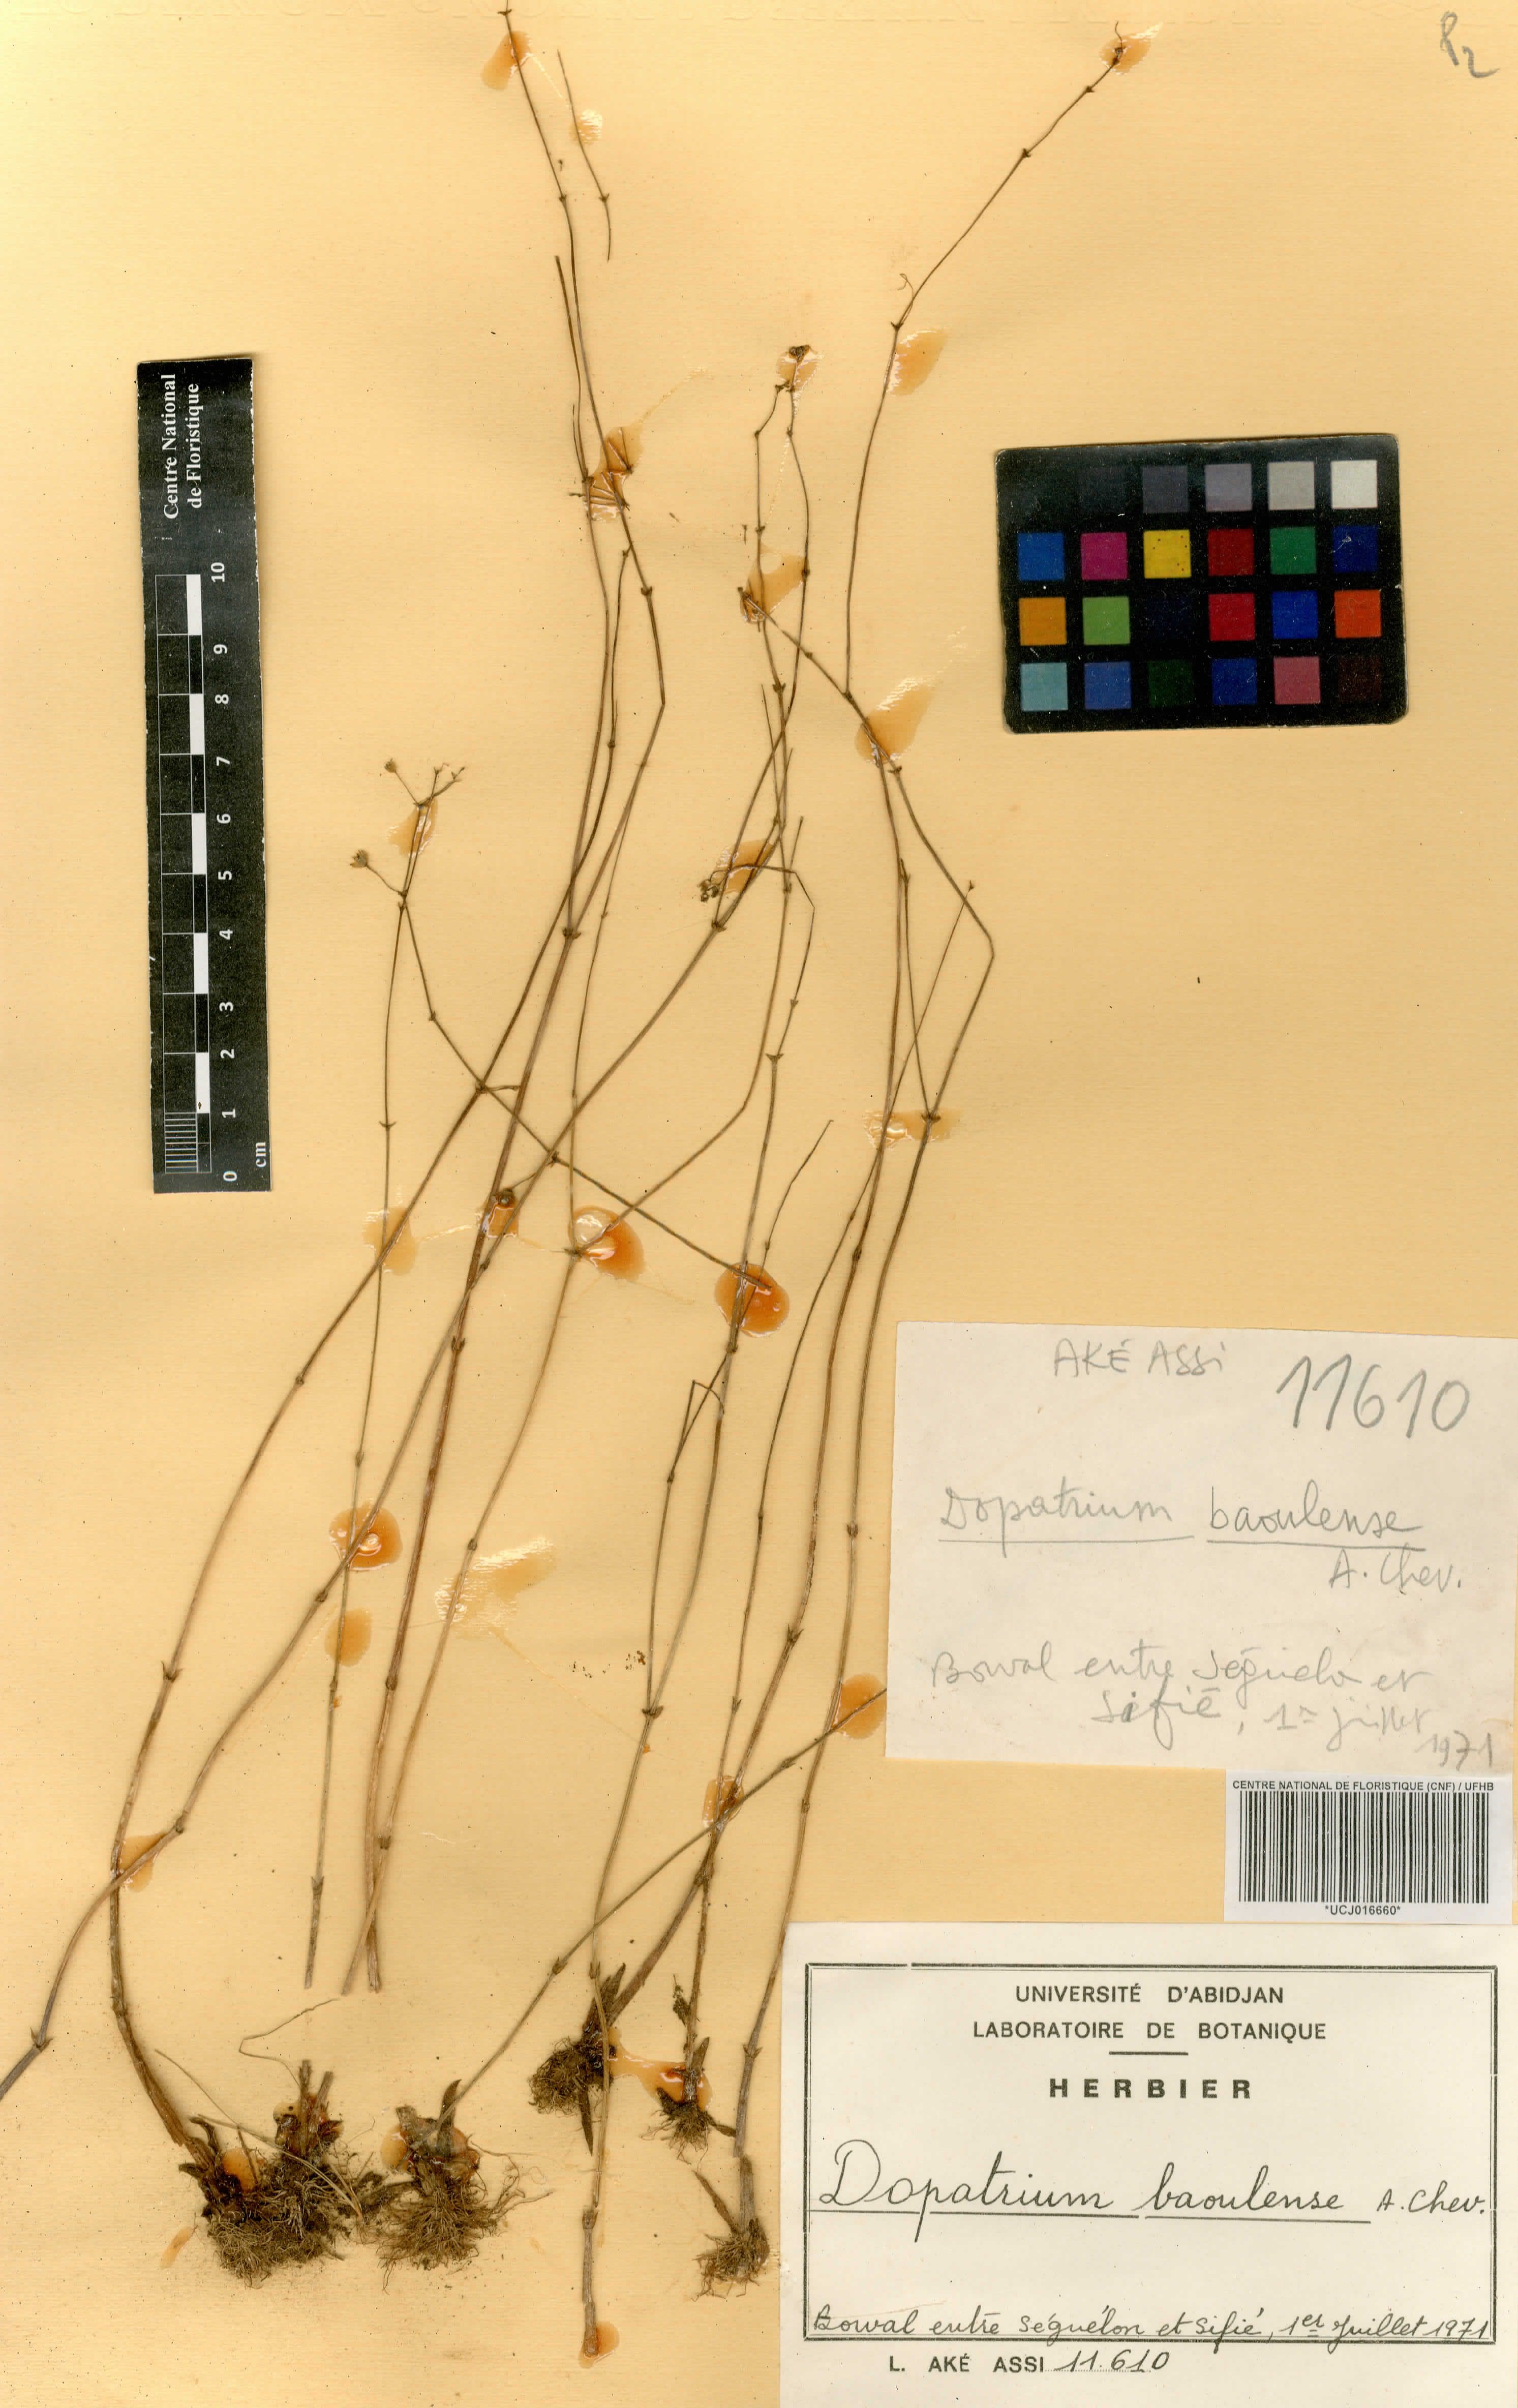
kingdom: Plantae
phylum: Tracheophyta
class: Magnoliopsida
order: Lamiales
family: Plantaginaceae
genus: Dopatrium
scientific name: Dopatrium baoulense
